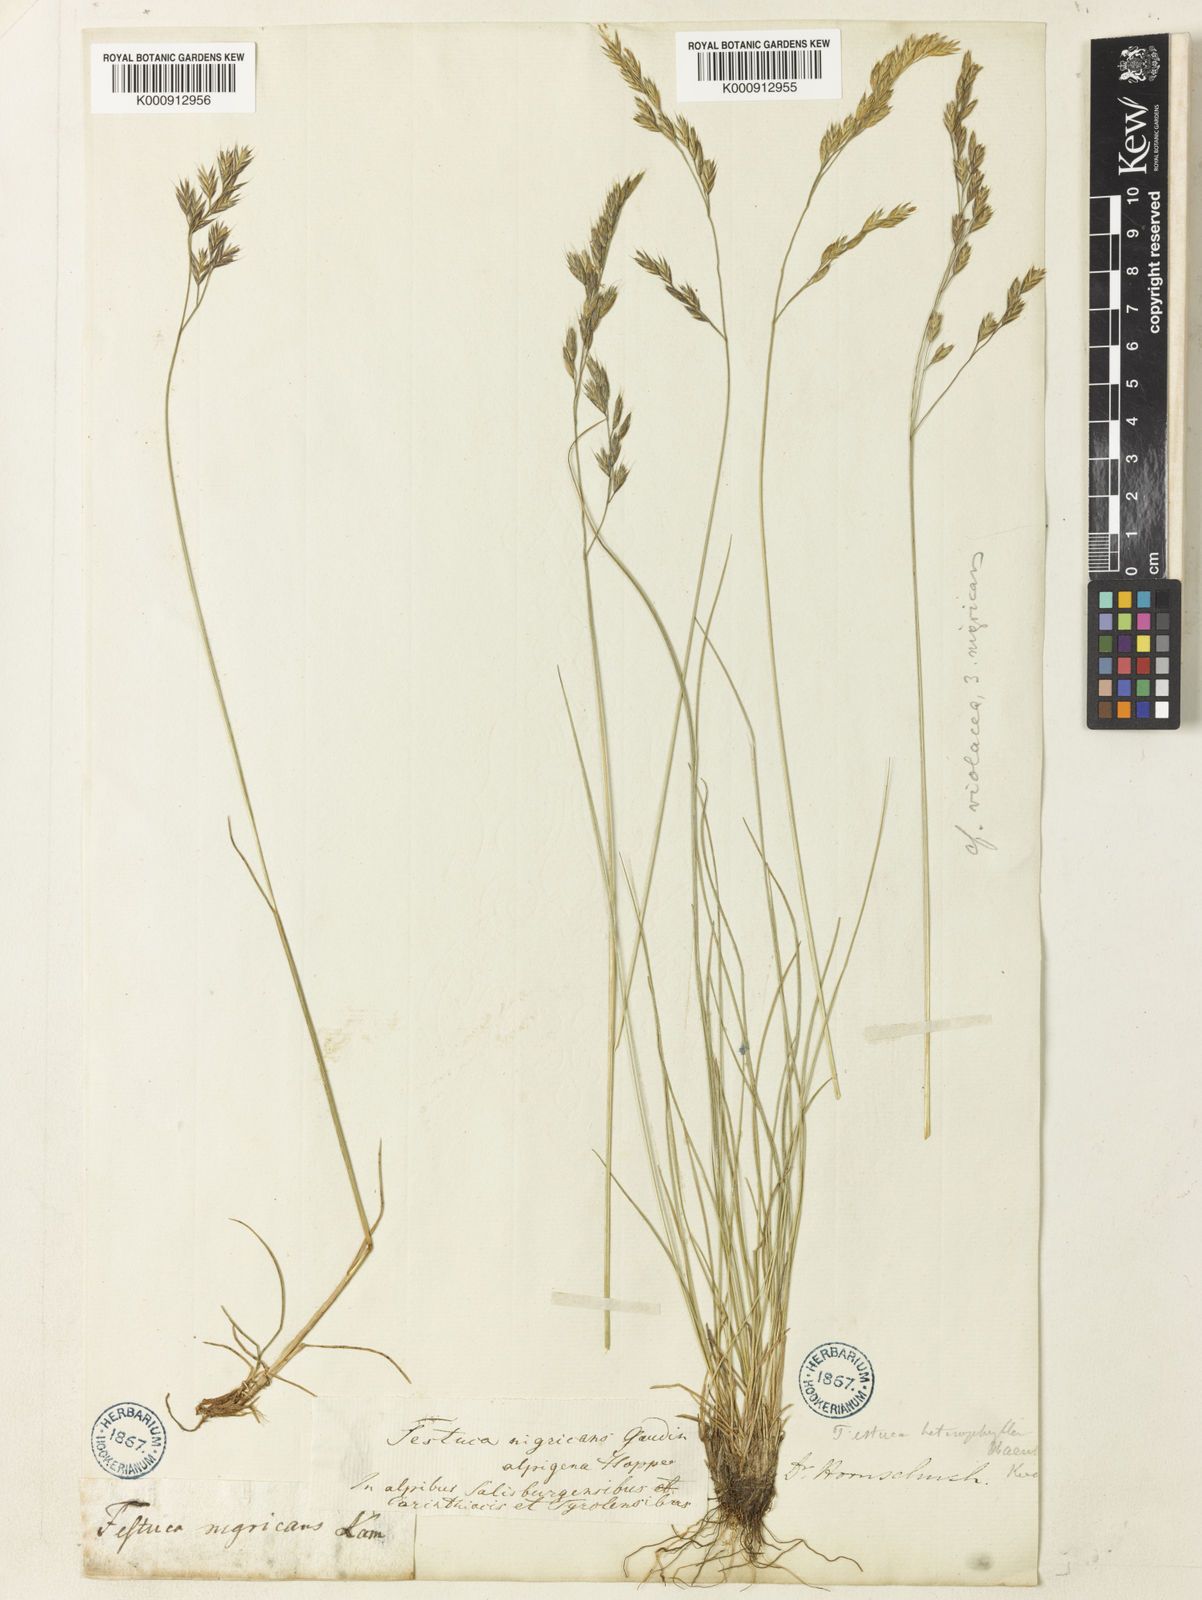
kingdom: Plantae
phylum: Tracheophyta
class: Liliopsida
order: Poales
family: Poaceae
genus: Festuca
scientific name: Festuca puccinellii
